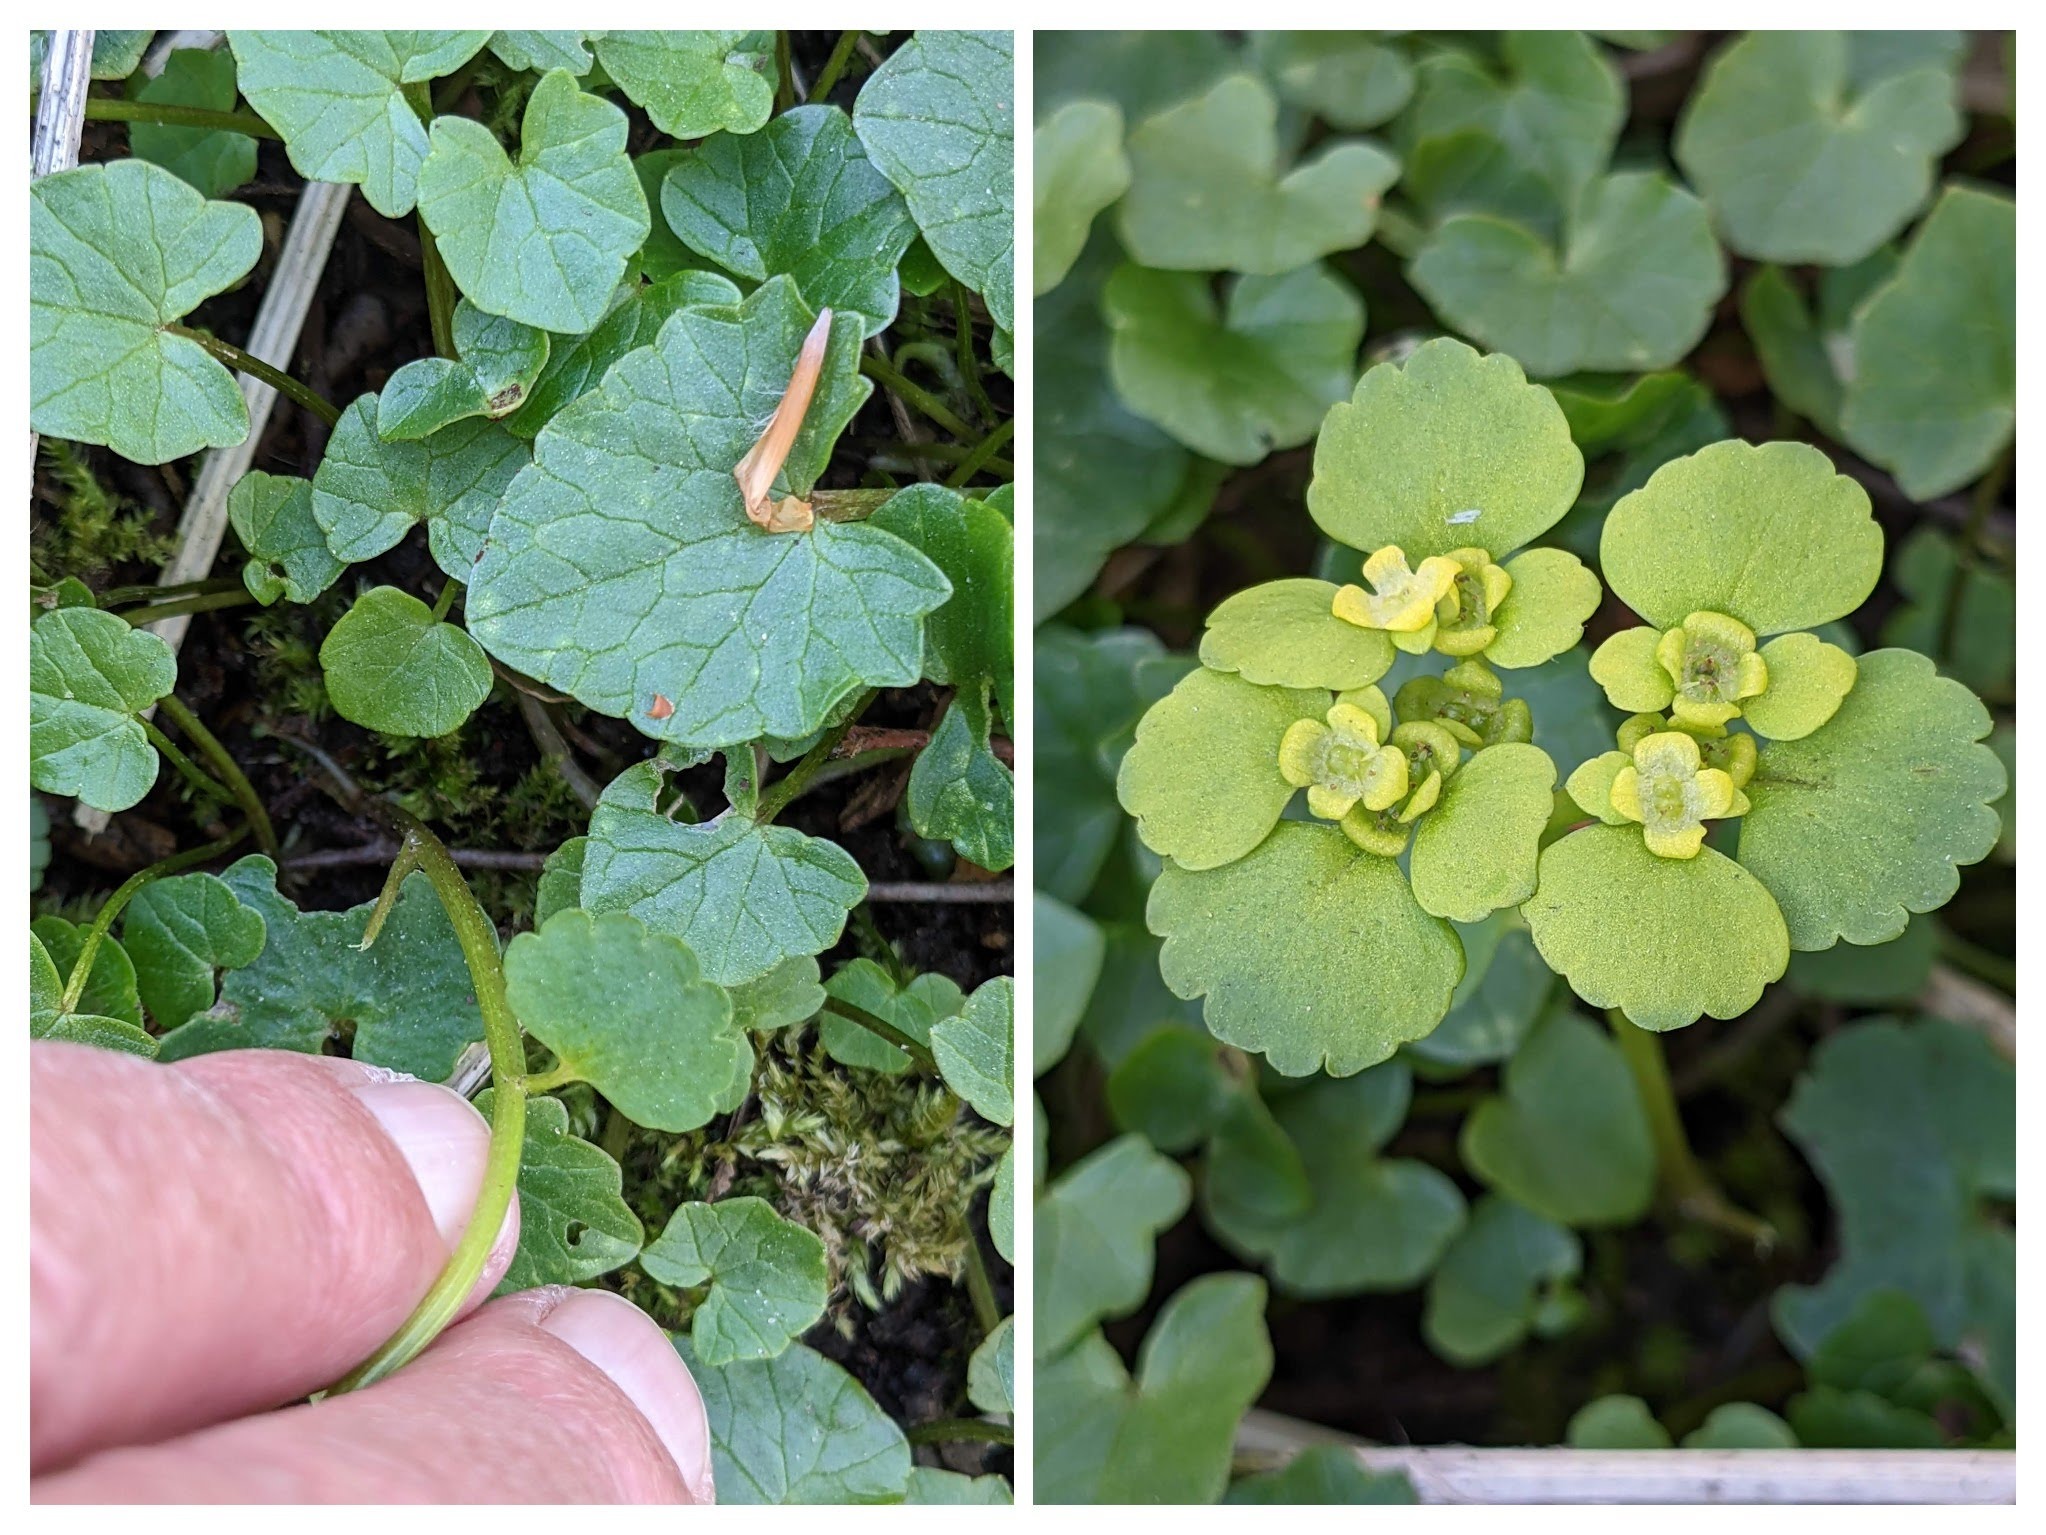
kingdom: Plantae
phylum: Tracheophyta
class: Magnoliopsida
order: Saxifragales
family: Saxifragaceae
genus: Chrysosplenium
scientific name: Chrysosplenium alternifolium
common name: Almindelig milturt
